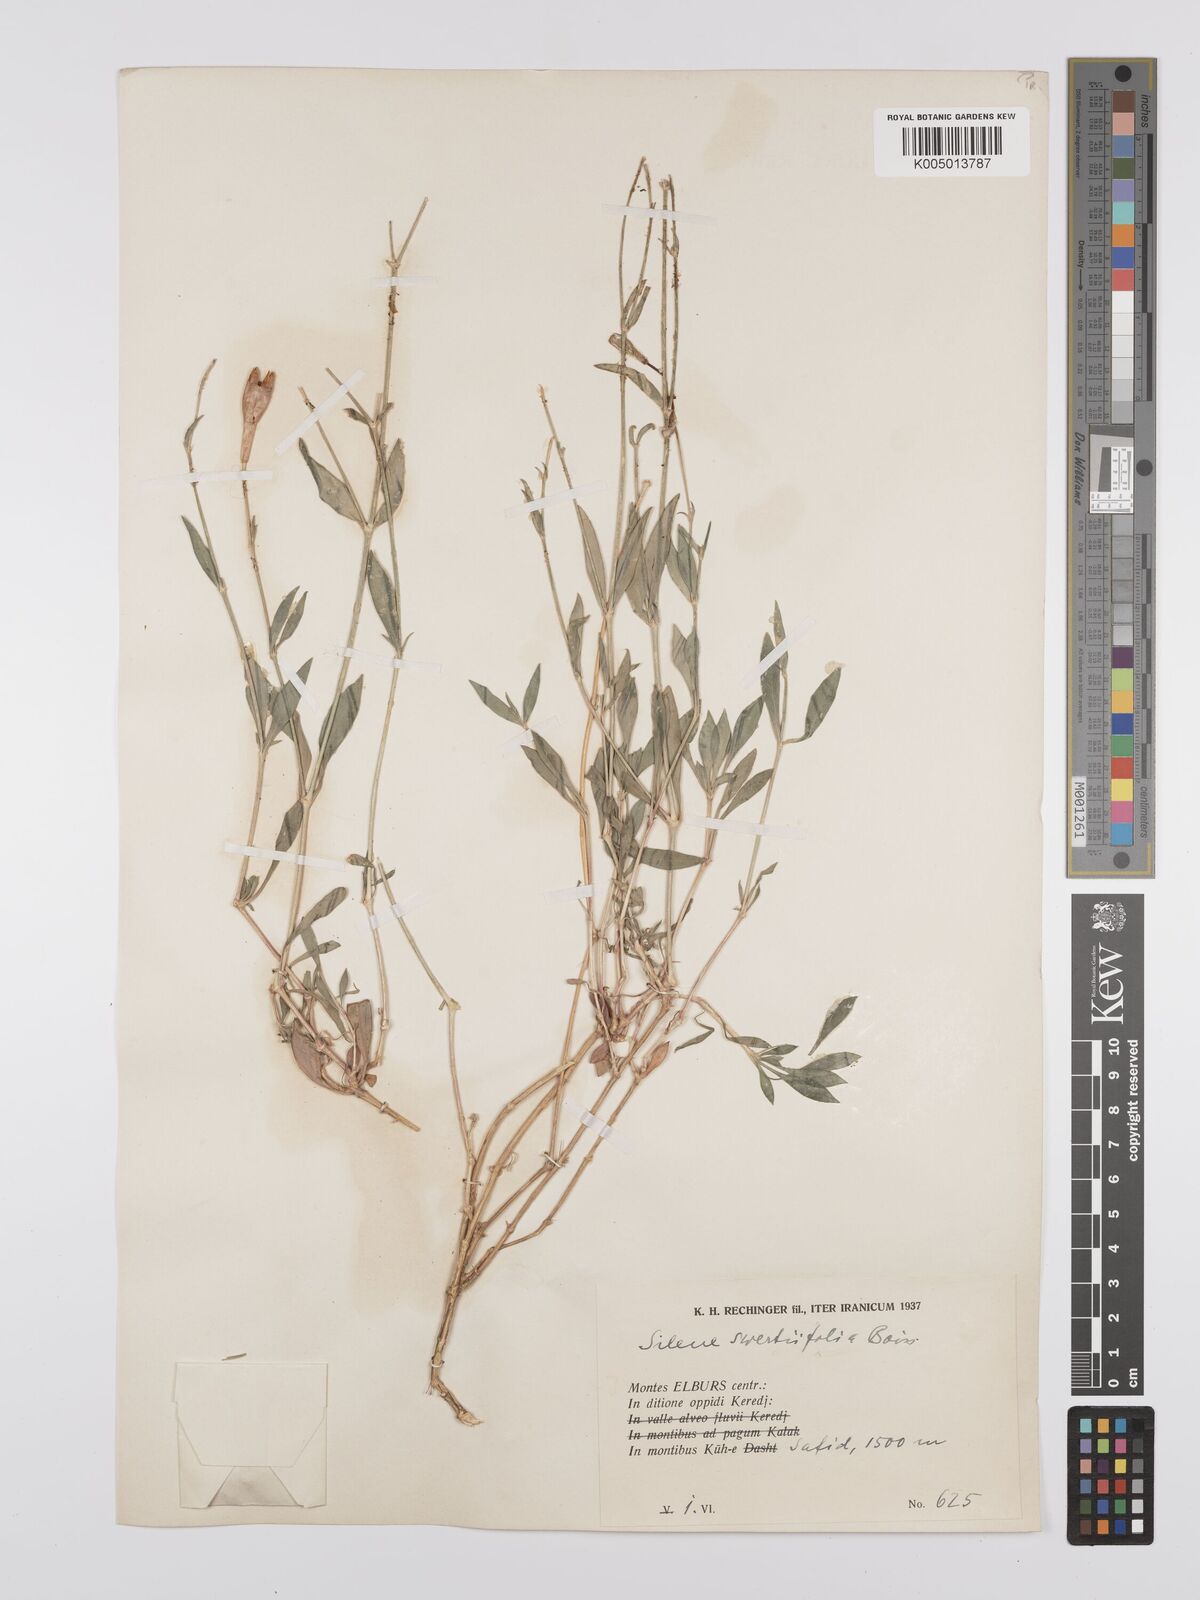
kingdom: Plantae
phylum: Tracheophyta
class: Magnoliopsida
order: Caryophyllales
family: Caryophyllaceae
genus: Silene
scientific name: Silene swertiifolia
